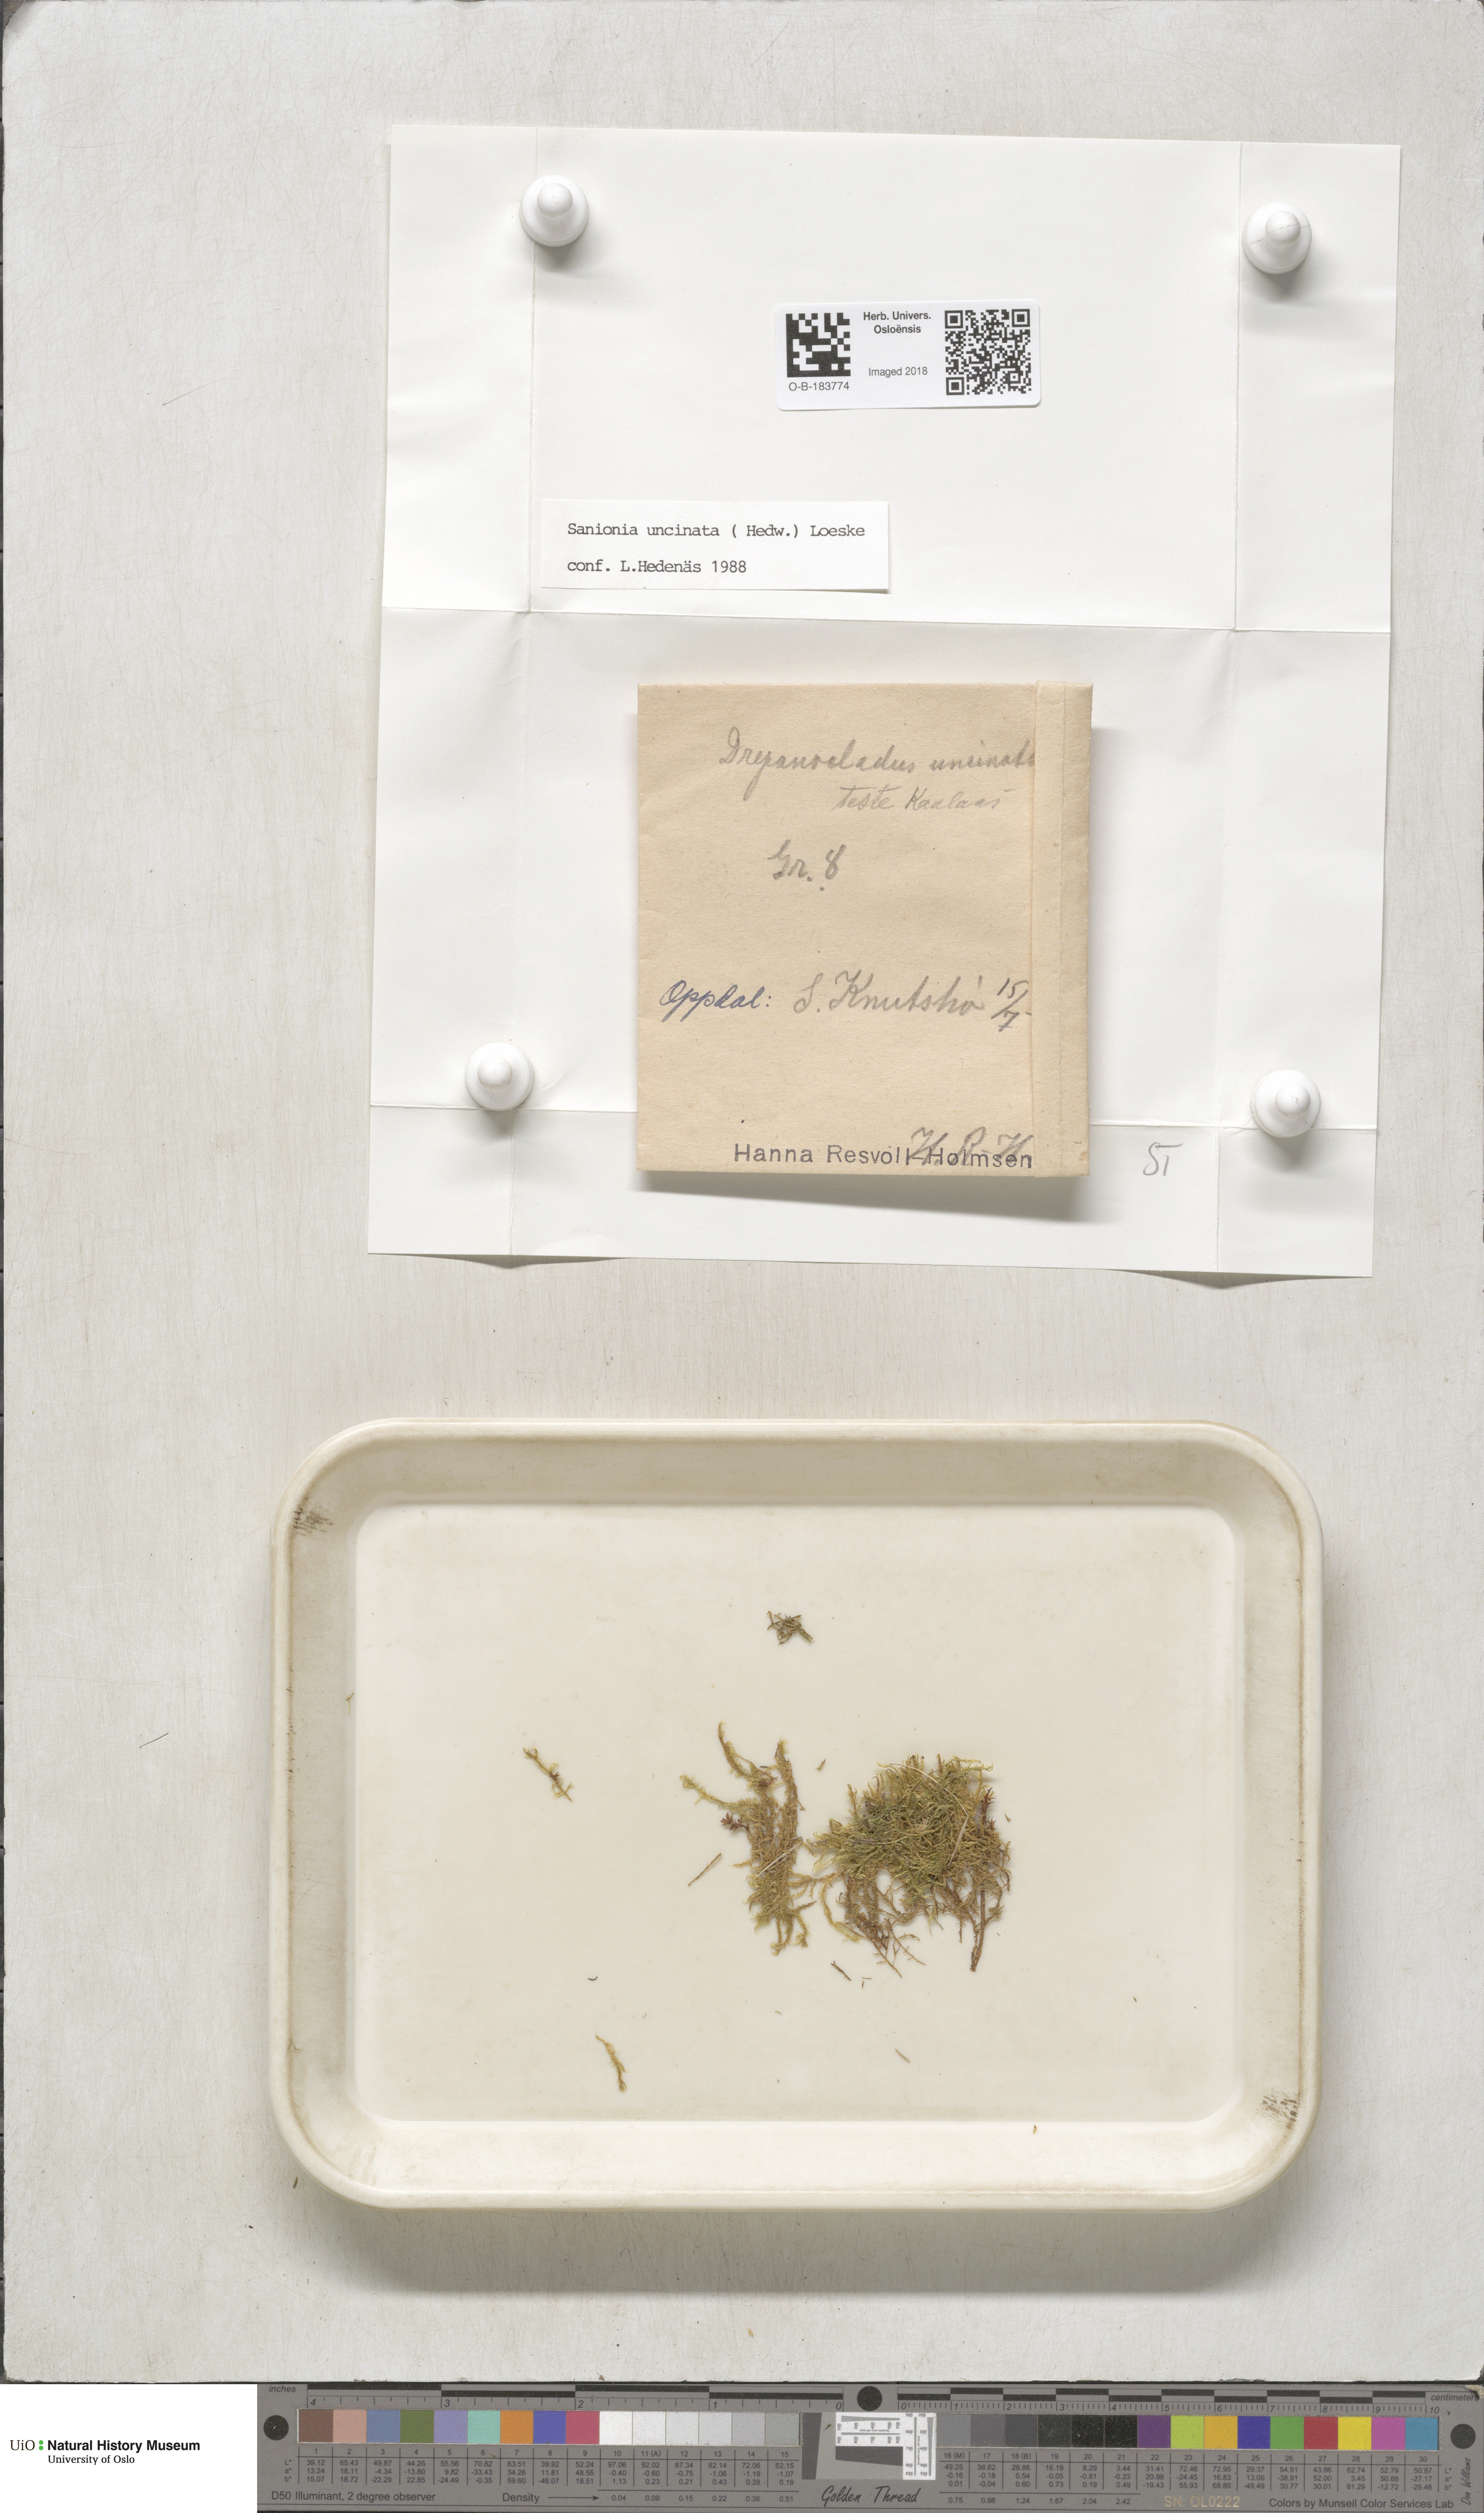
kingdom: Plantae
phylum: Bryophyta
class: Bryopsida
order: Hypnales
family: Scorpidiaceae
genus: Sanionia
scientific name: Sanionia uncinata
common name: Sickle moss
